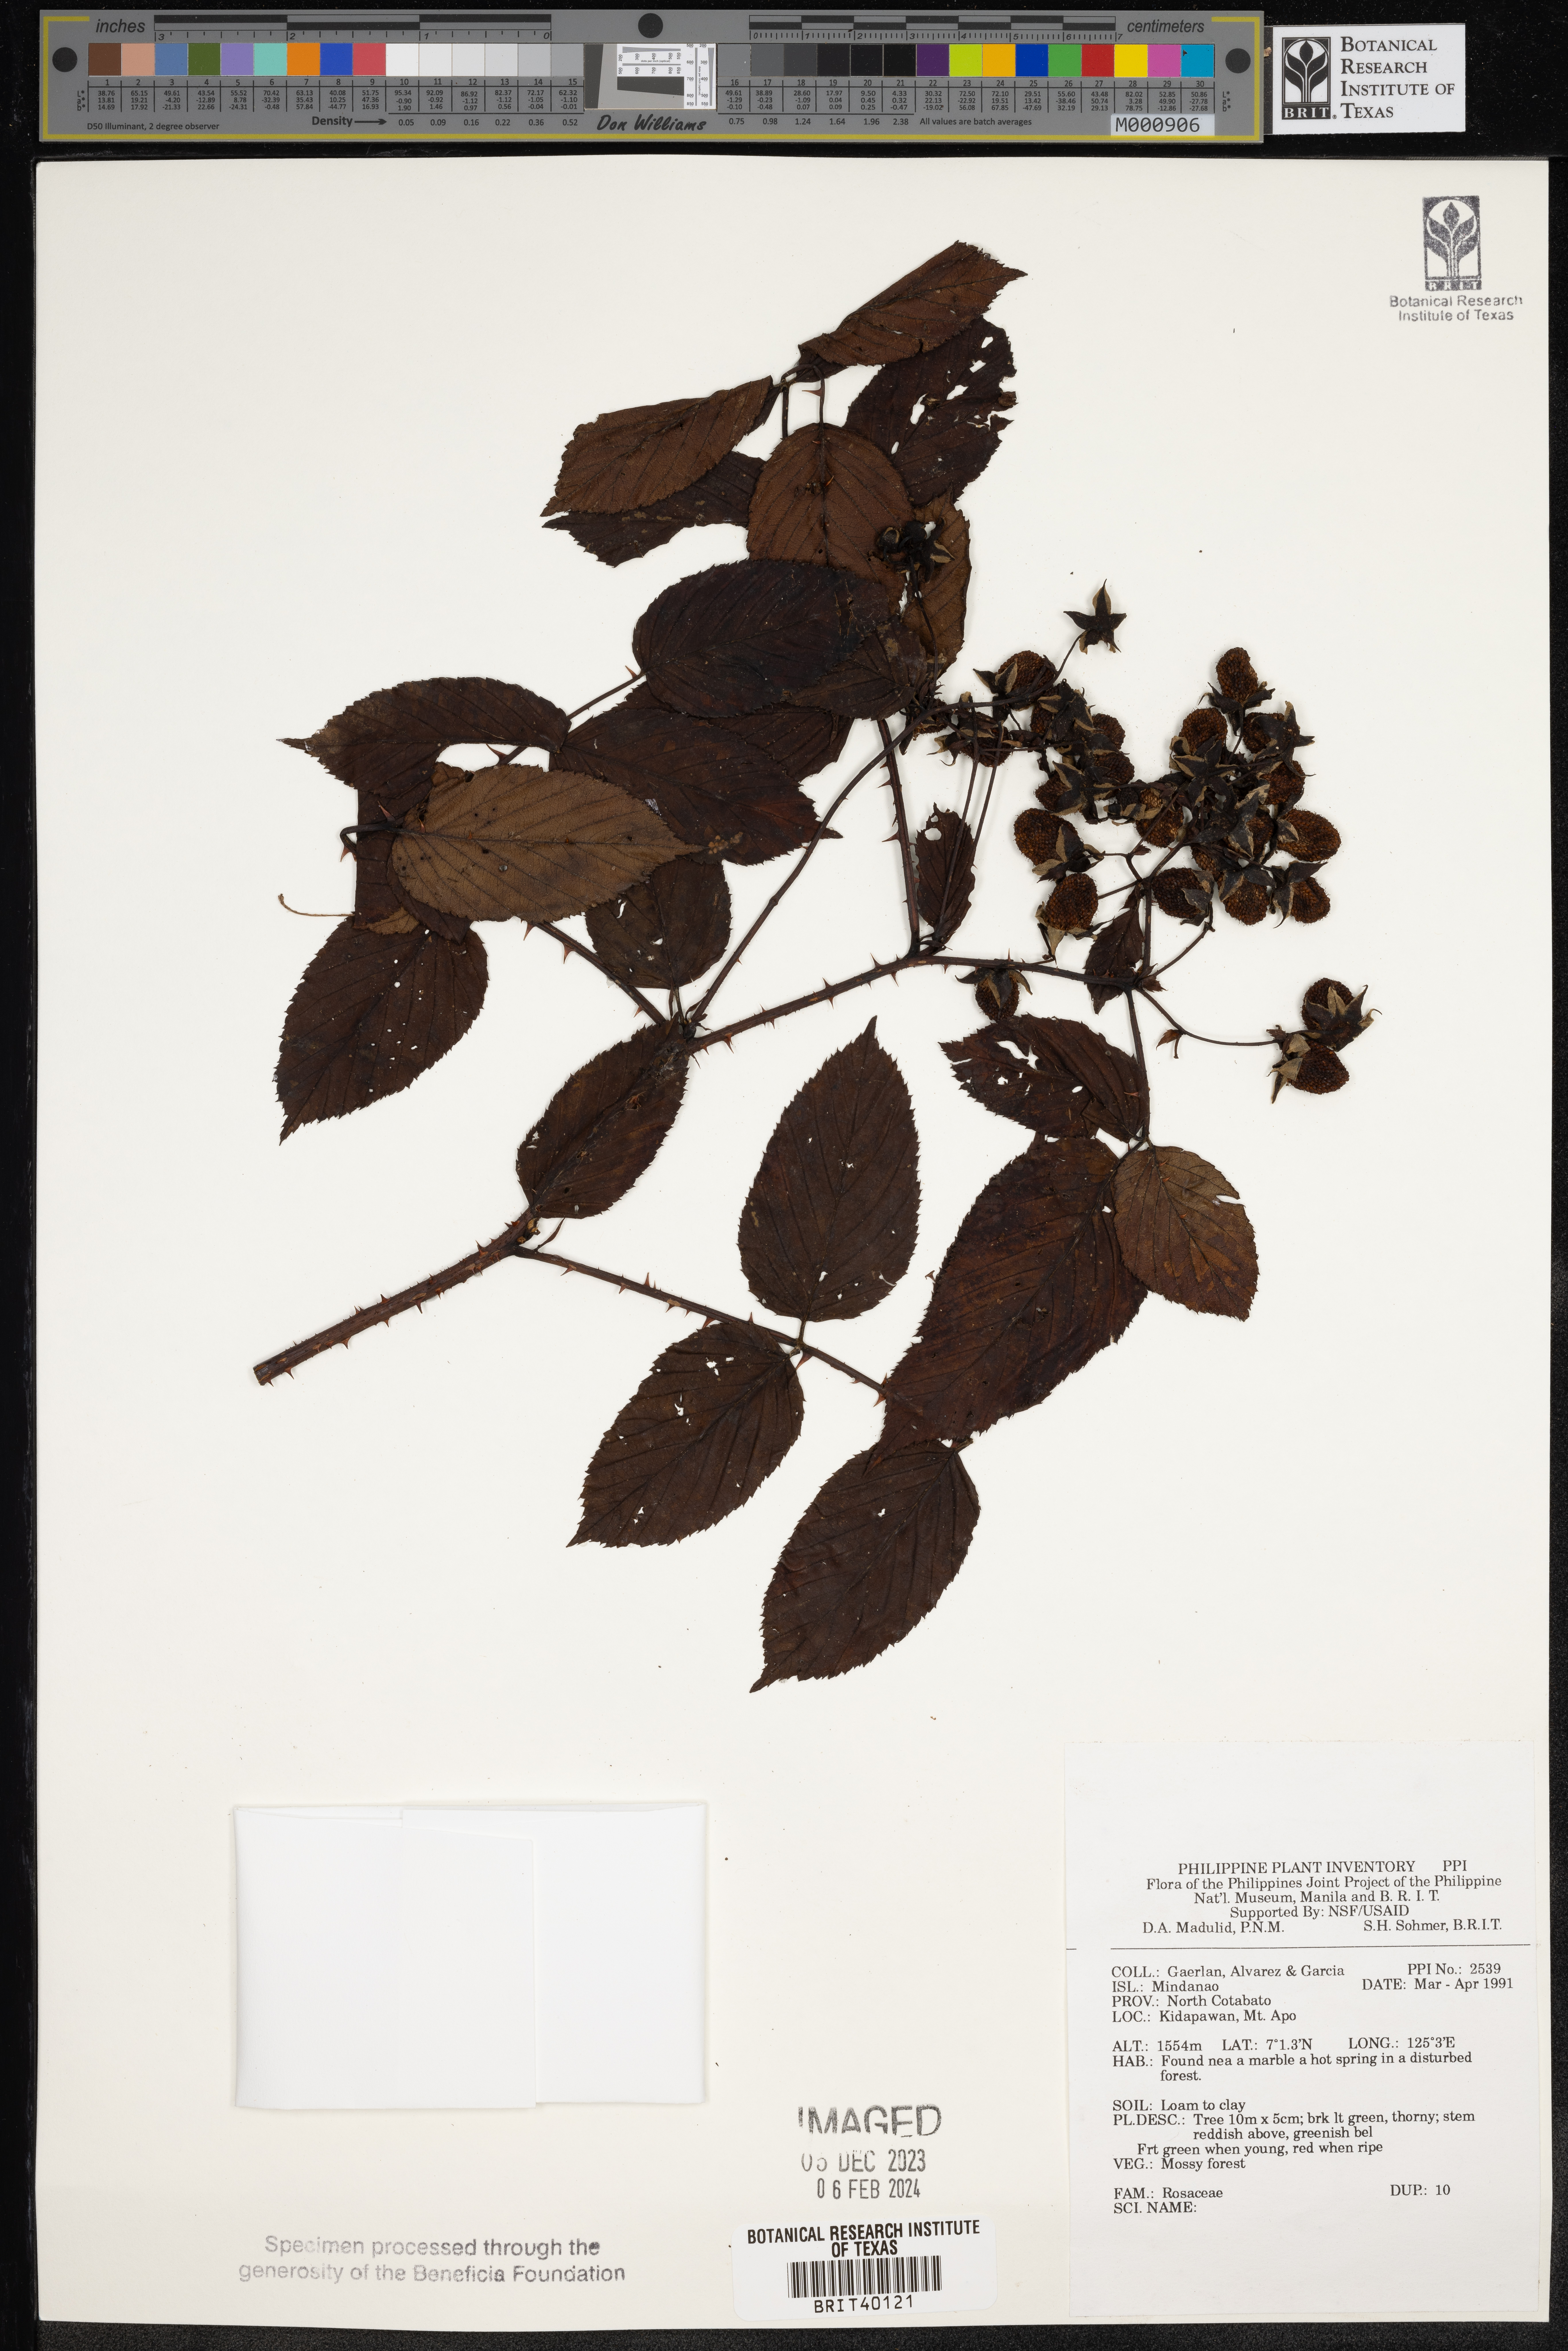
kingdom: Plantae
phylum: Tracheophyta
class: Magnoliopsida
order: Rosales
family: Rosaceae
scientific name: Rosaceae
